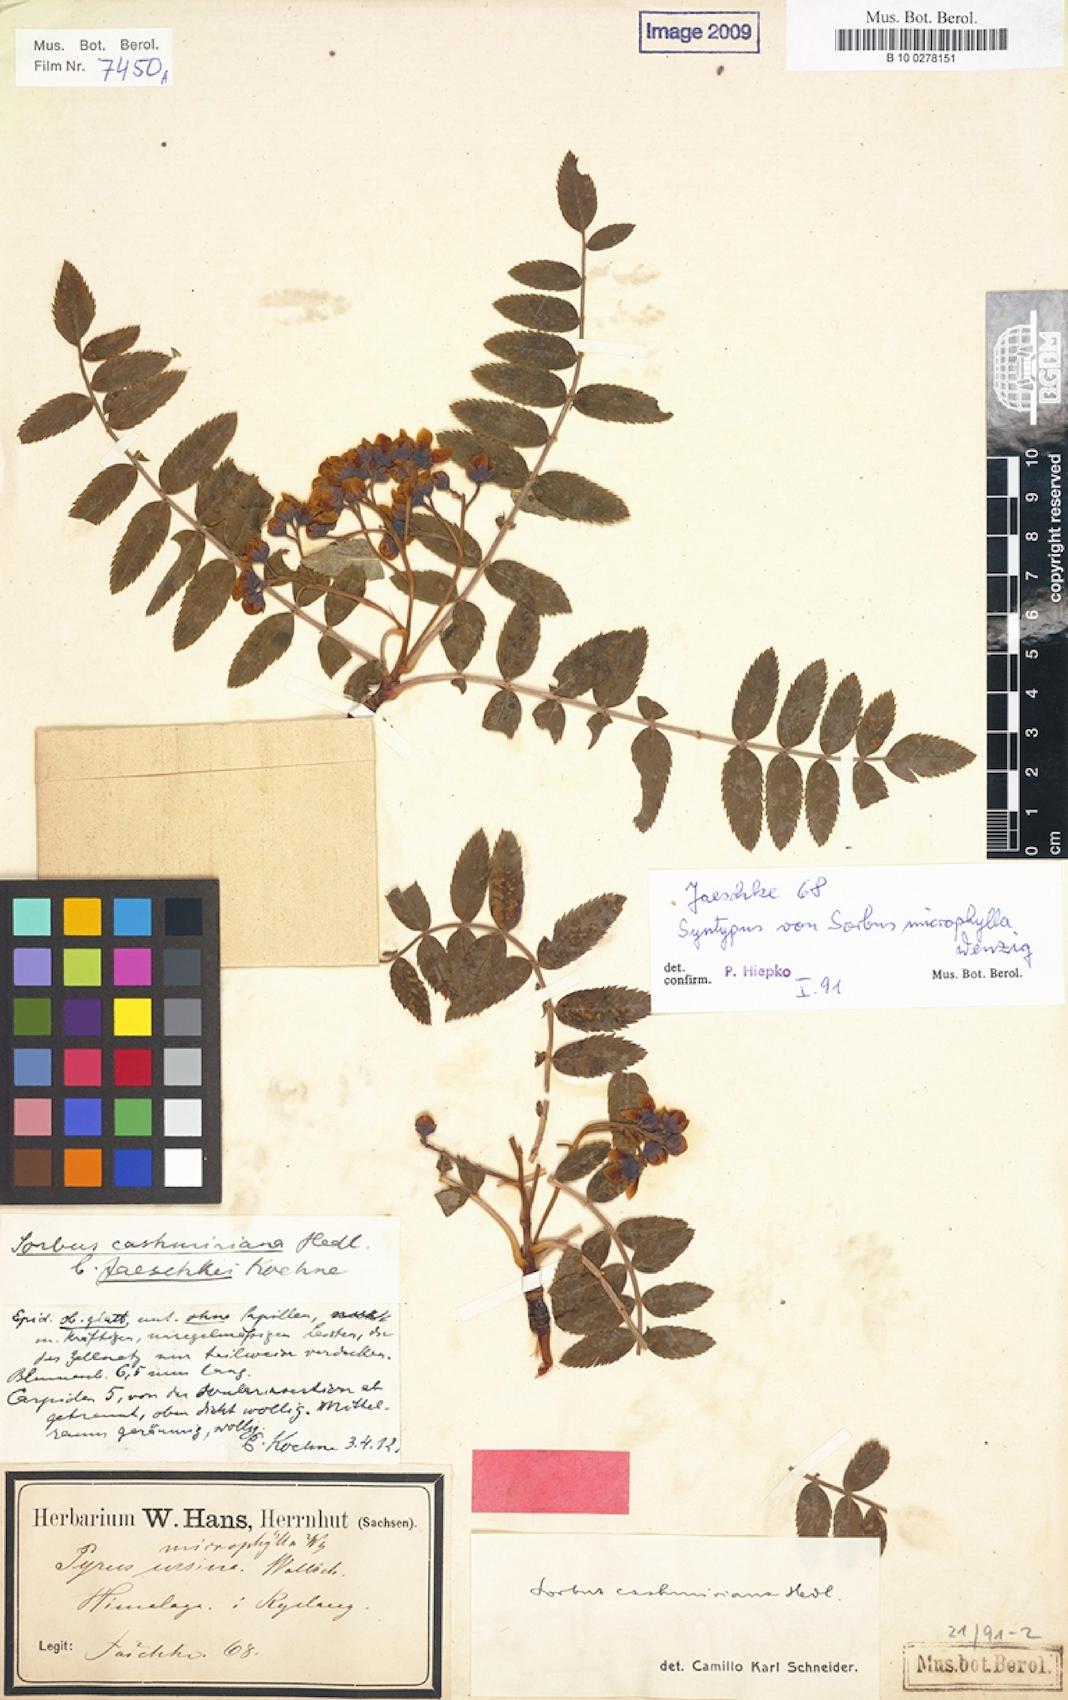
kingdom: Plantae
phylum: Tracheophyta
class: Magnoliopsida
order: Rosales
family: Rosaceae
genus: Sorbus
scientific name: Sorbus cashmiriana
